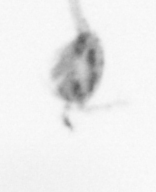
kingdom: Animalia
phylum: Annelida
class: Polychaeta
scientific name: Polychaeta
